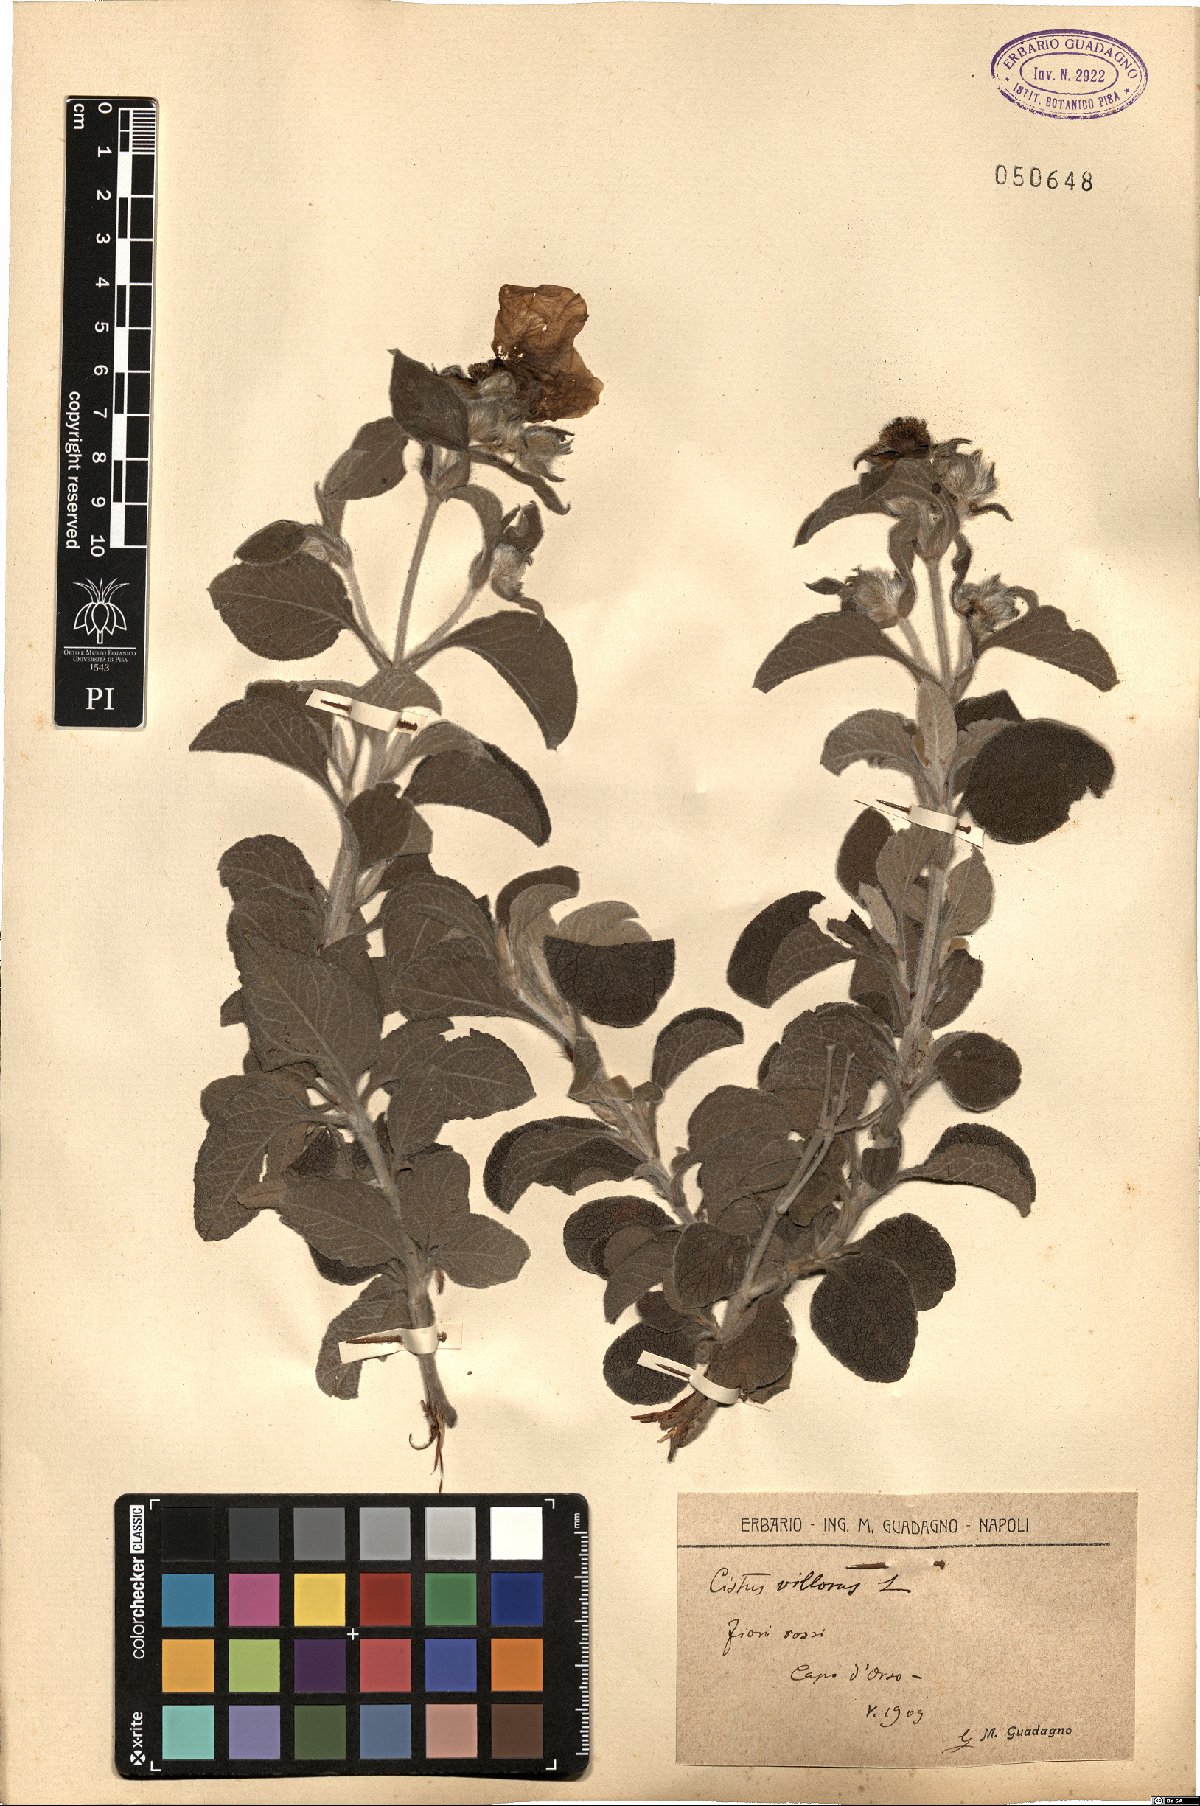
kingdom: Plantae
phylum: Tracheophyta
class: Magnoliopsida
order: Malvales
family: Cistaceae
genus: Cistus
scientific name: Cistus creticus
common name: Cretan rockrose
